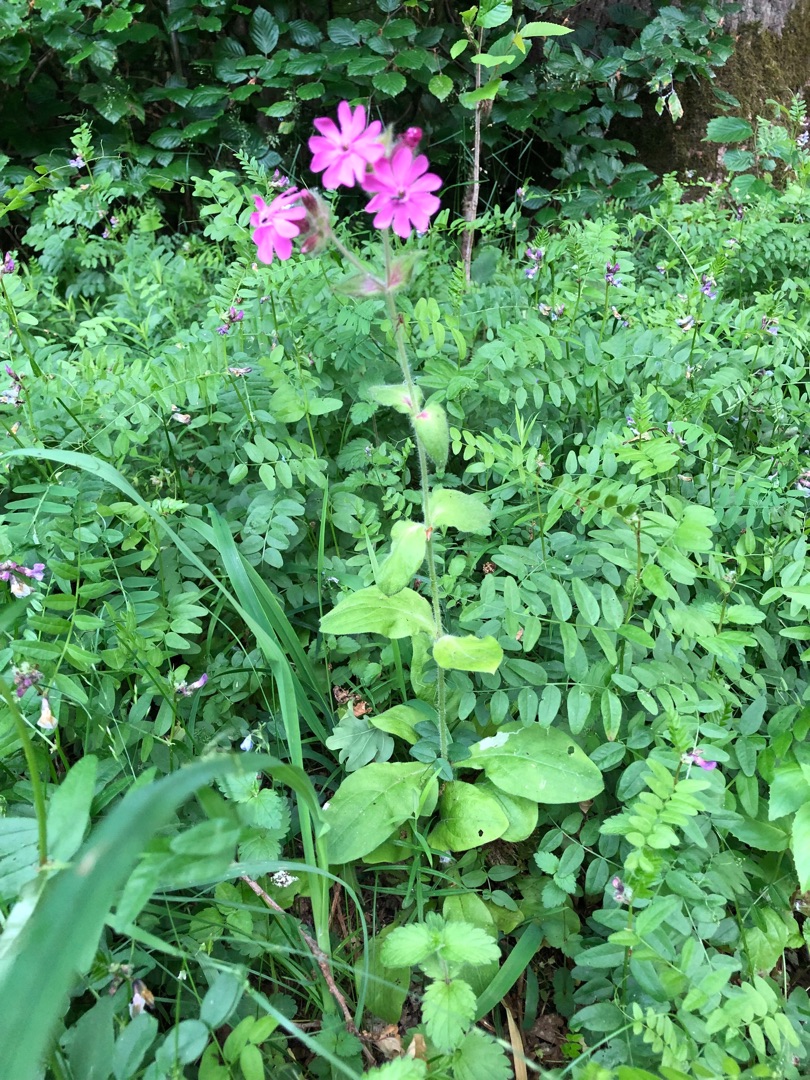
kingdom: Plantae
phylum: Tracheophyta
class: Magnoliopsida
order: Caryophyllales
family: Caryophyllaceae
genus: Silene
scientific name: Silene dioica
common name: Dagpragtstjerne
